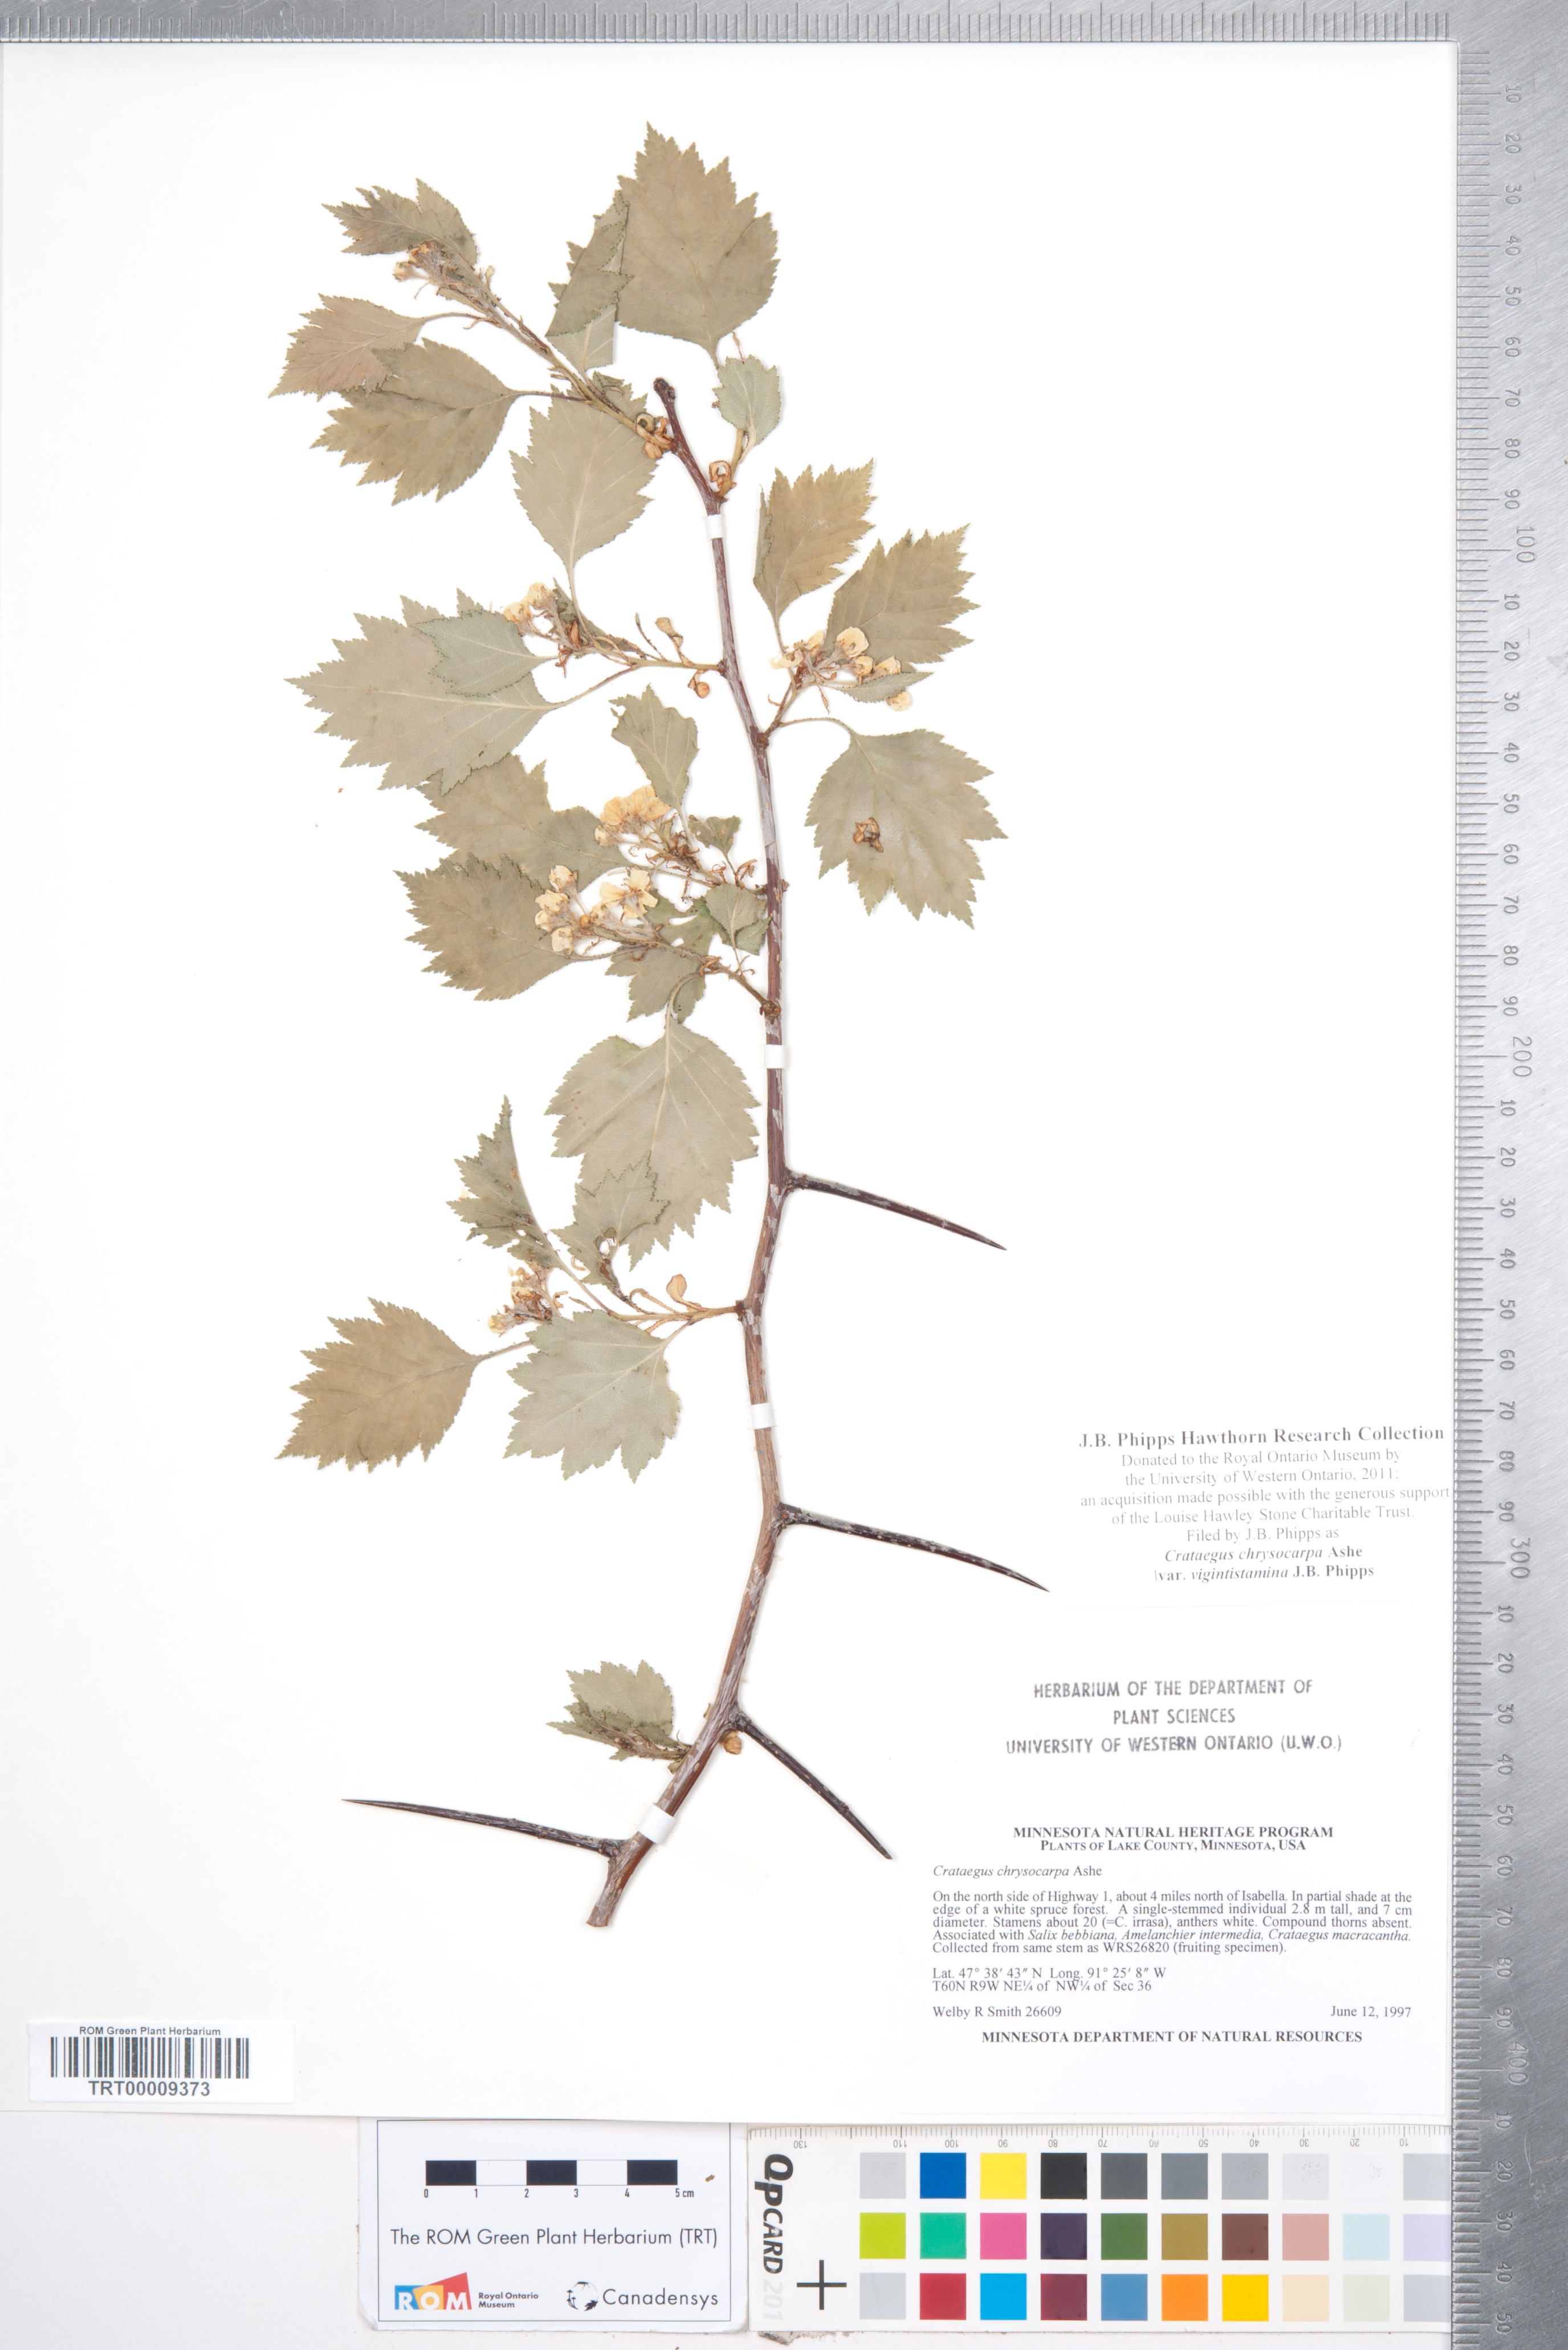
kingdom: Plantae
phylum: Tracheophyta
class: Magnoliopsida
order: Rosales
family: Rosaceae
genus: Crataegus
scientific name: Crataegus chrysocarpa
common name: Fire-berry hawthorn
